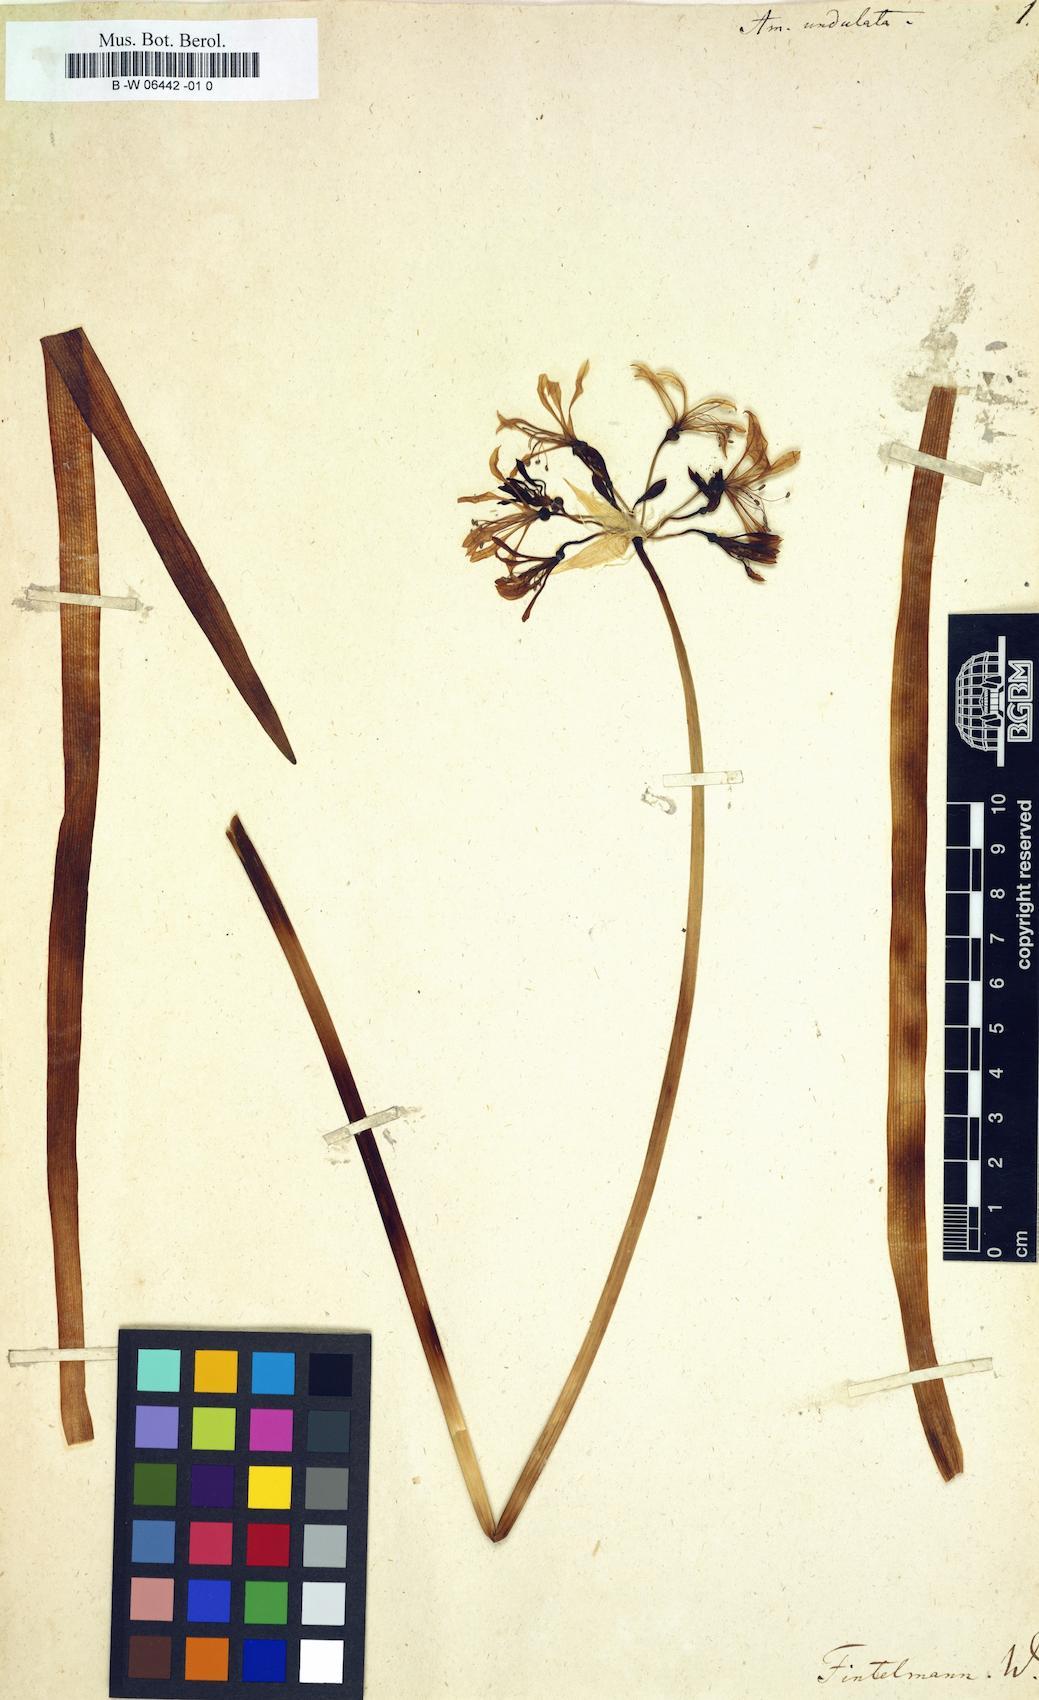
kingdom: Plantae
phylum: Tracheophyta
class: Liliopsida
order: Asparagales
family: Amaryllidaceae
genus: Nerine
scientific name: Nerine undulata
